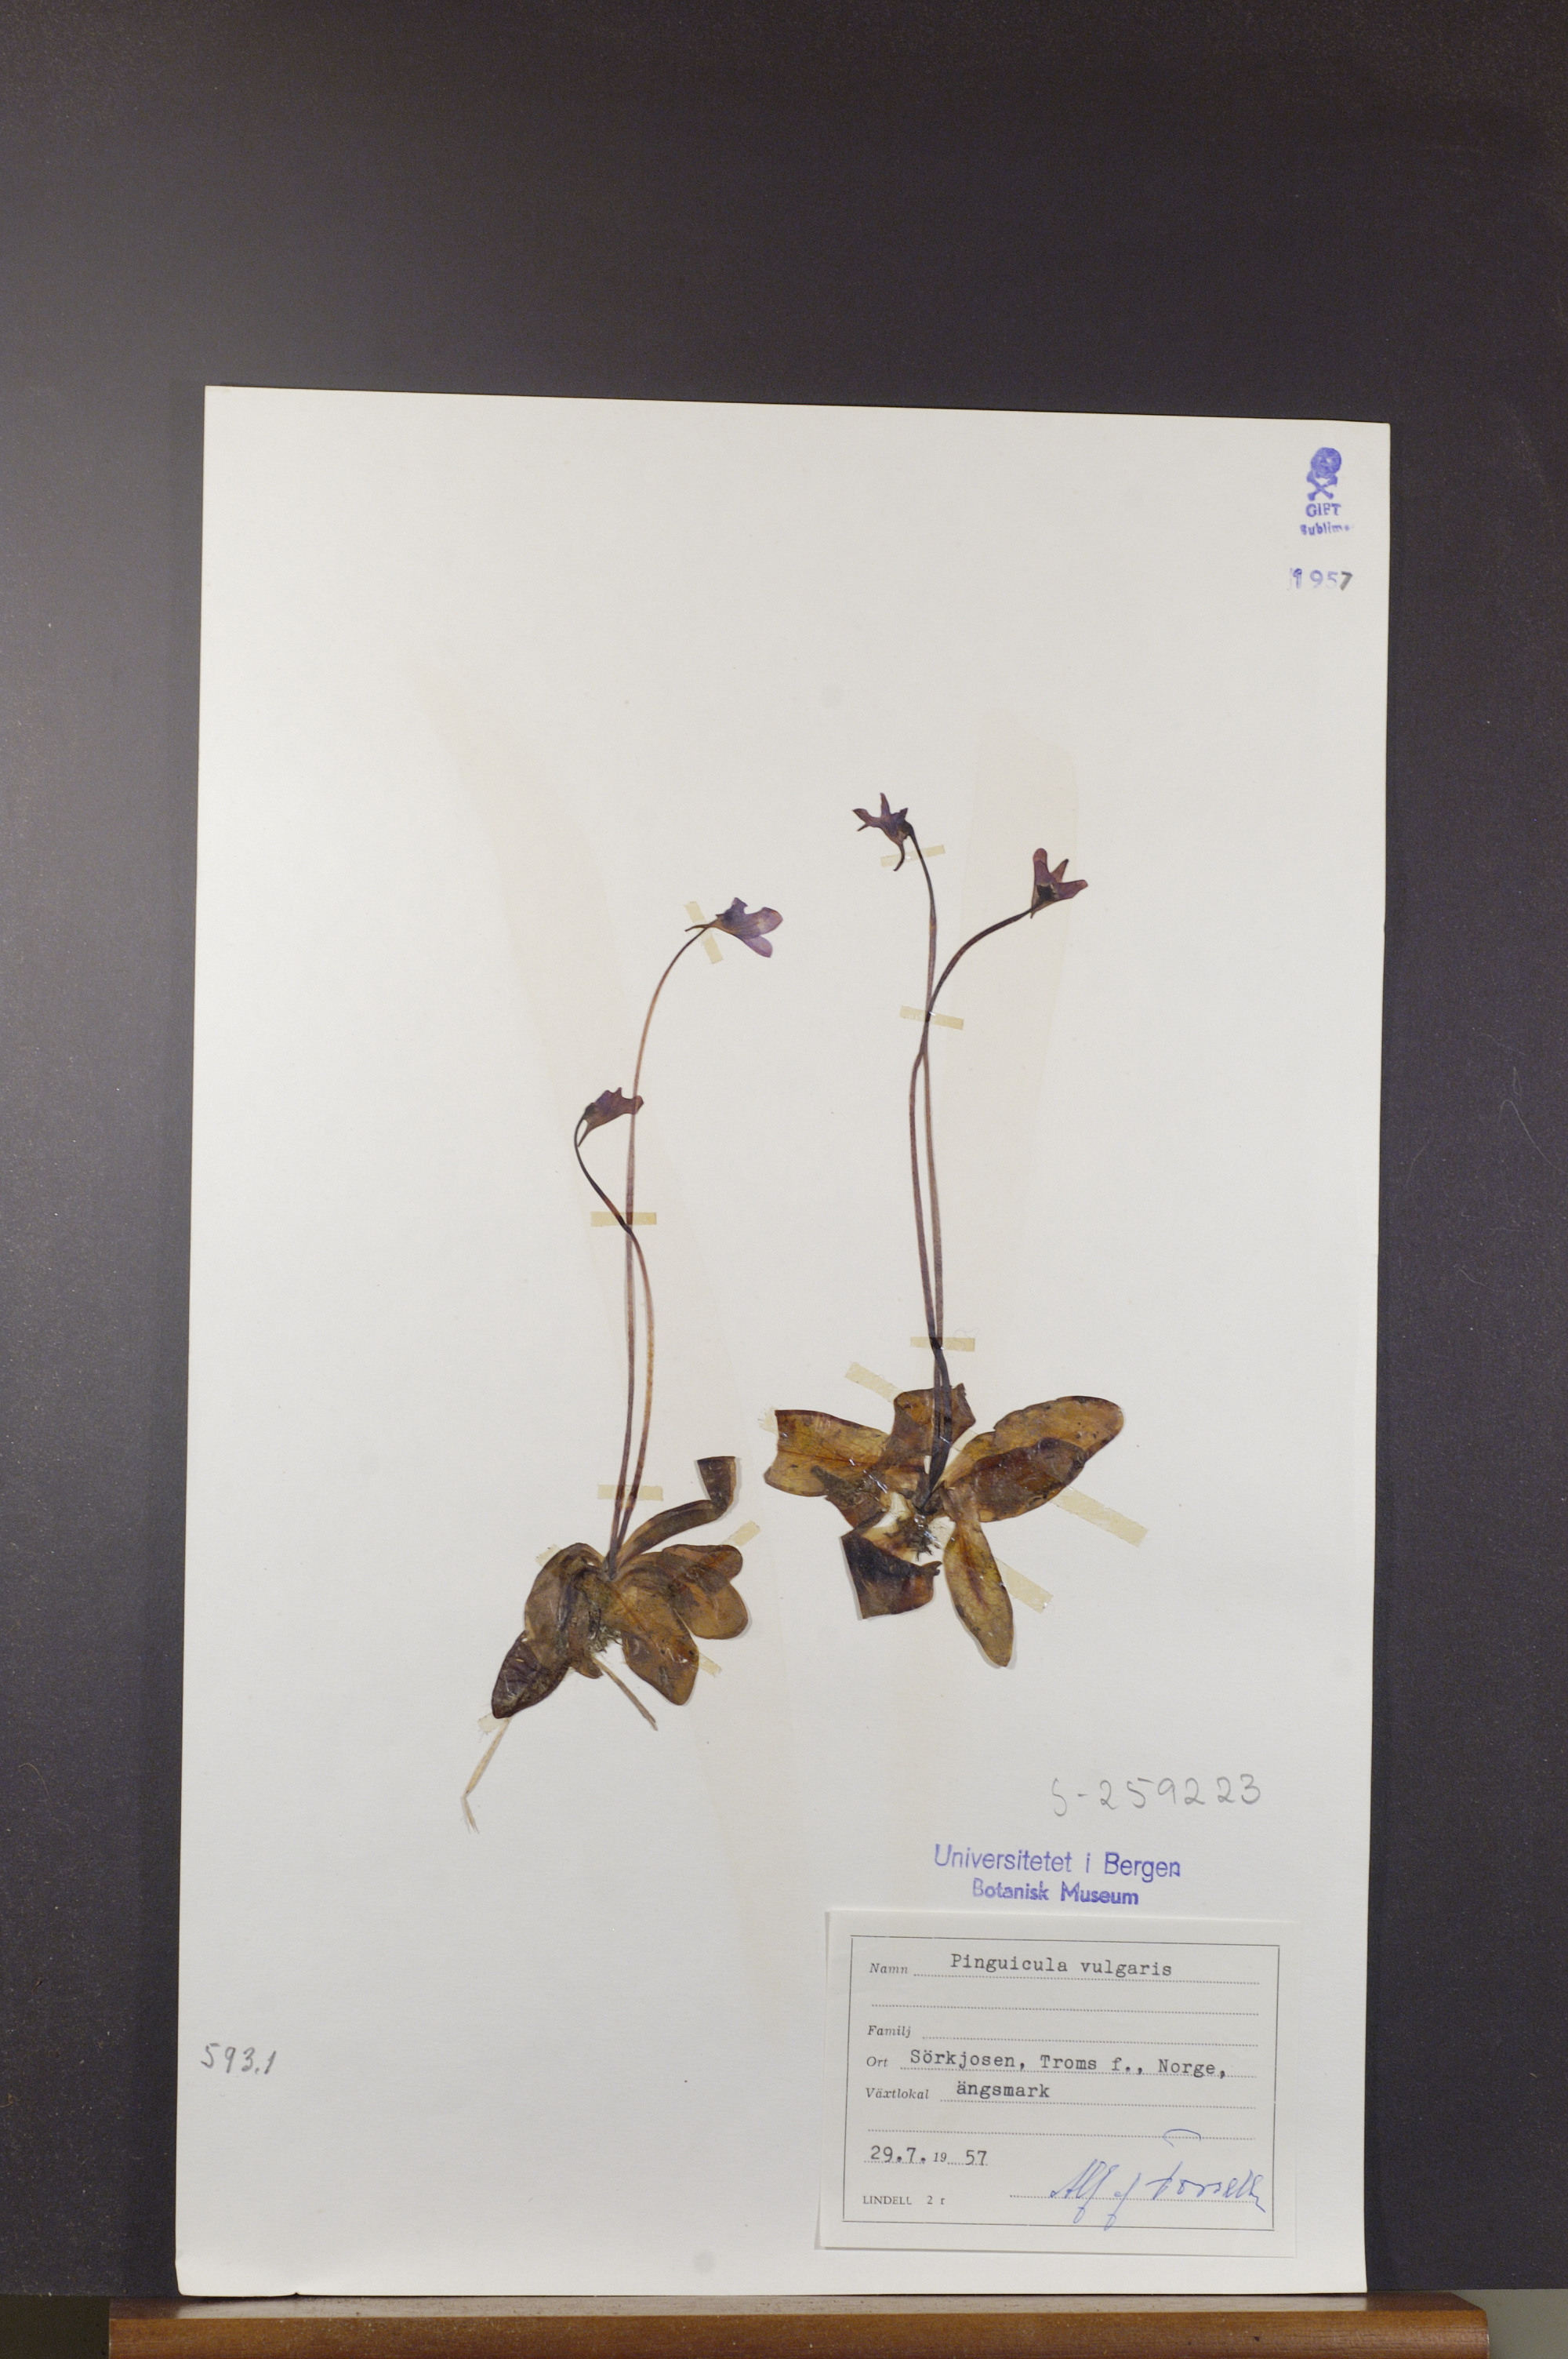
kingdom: Plantae
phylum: Tracheophyta
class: Magnoliopsida
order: Lamiales
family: Lentibulariaceae
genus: Pinguicula
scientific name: Pinguicula vulgaris
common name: Common butterwort
